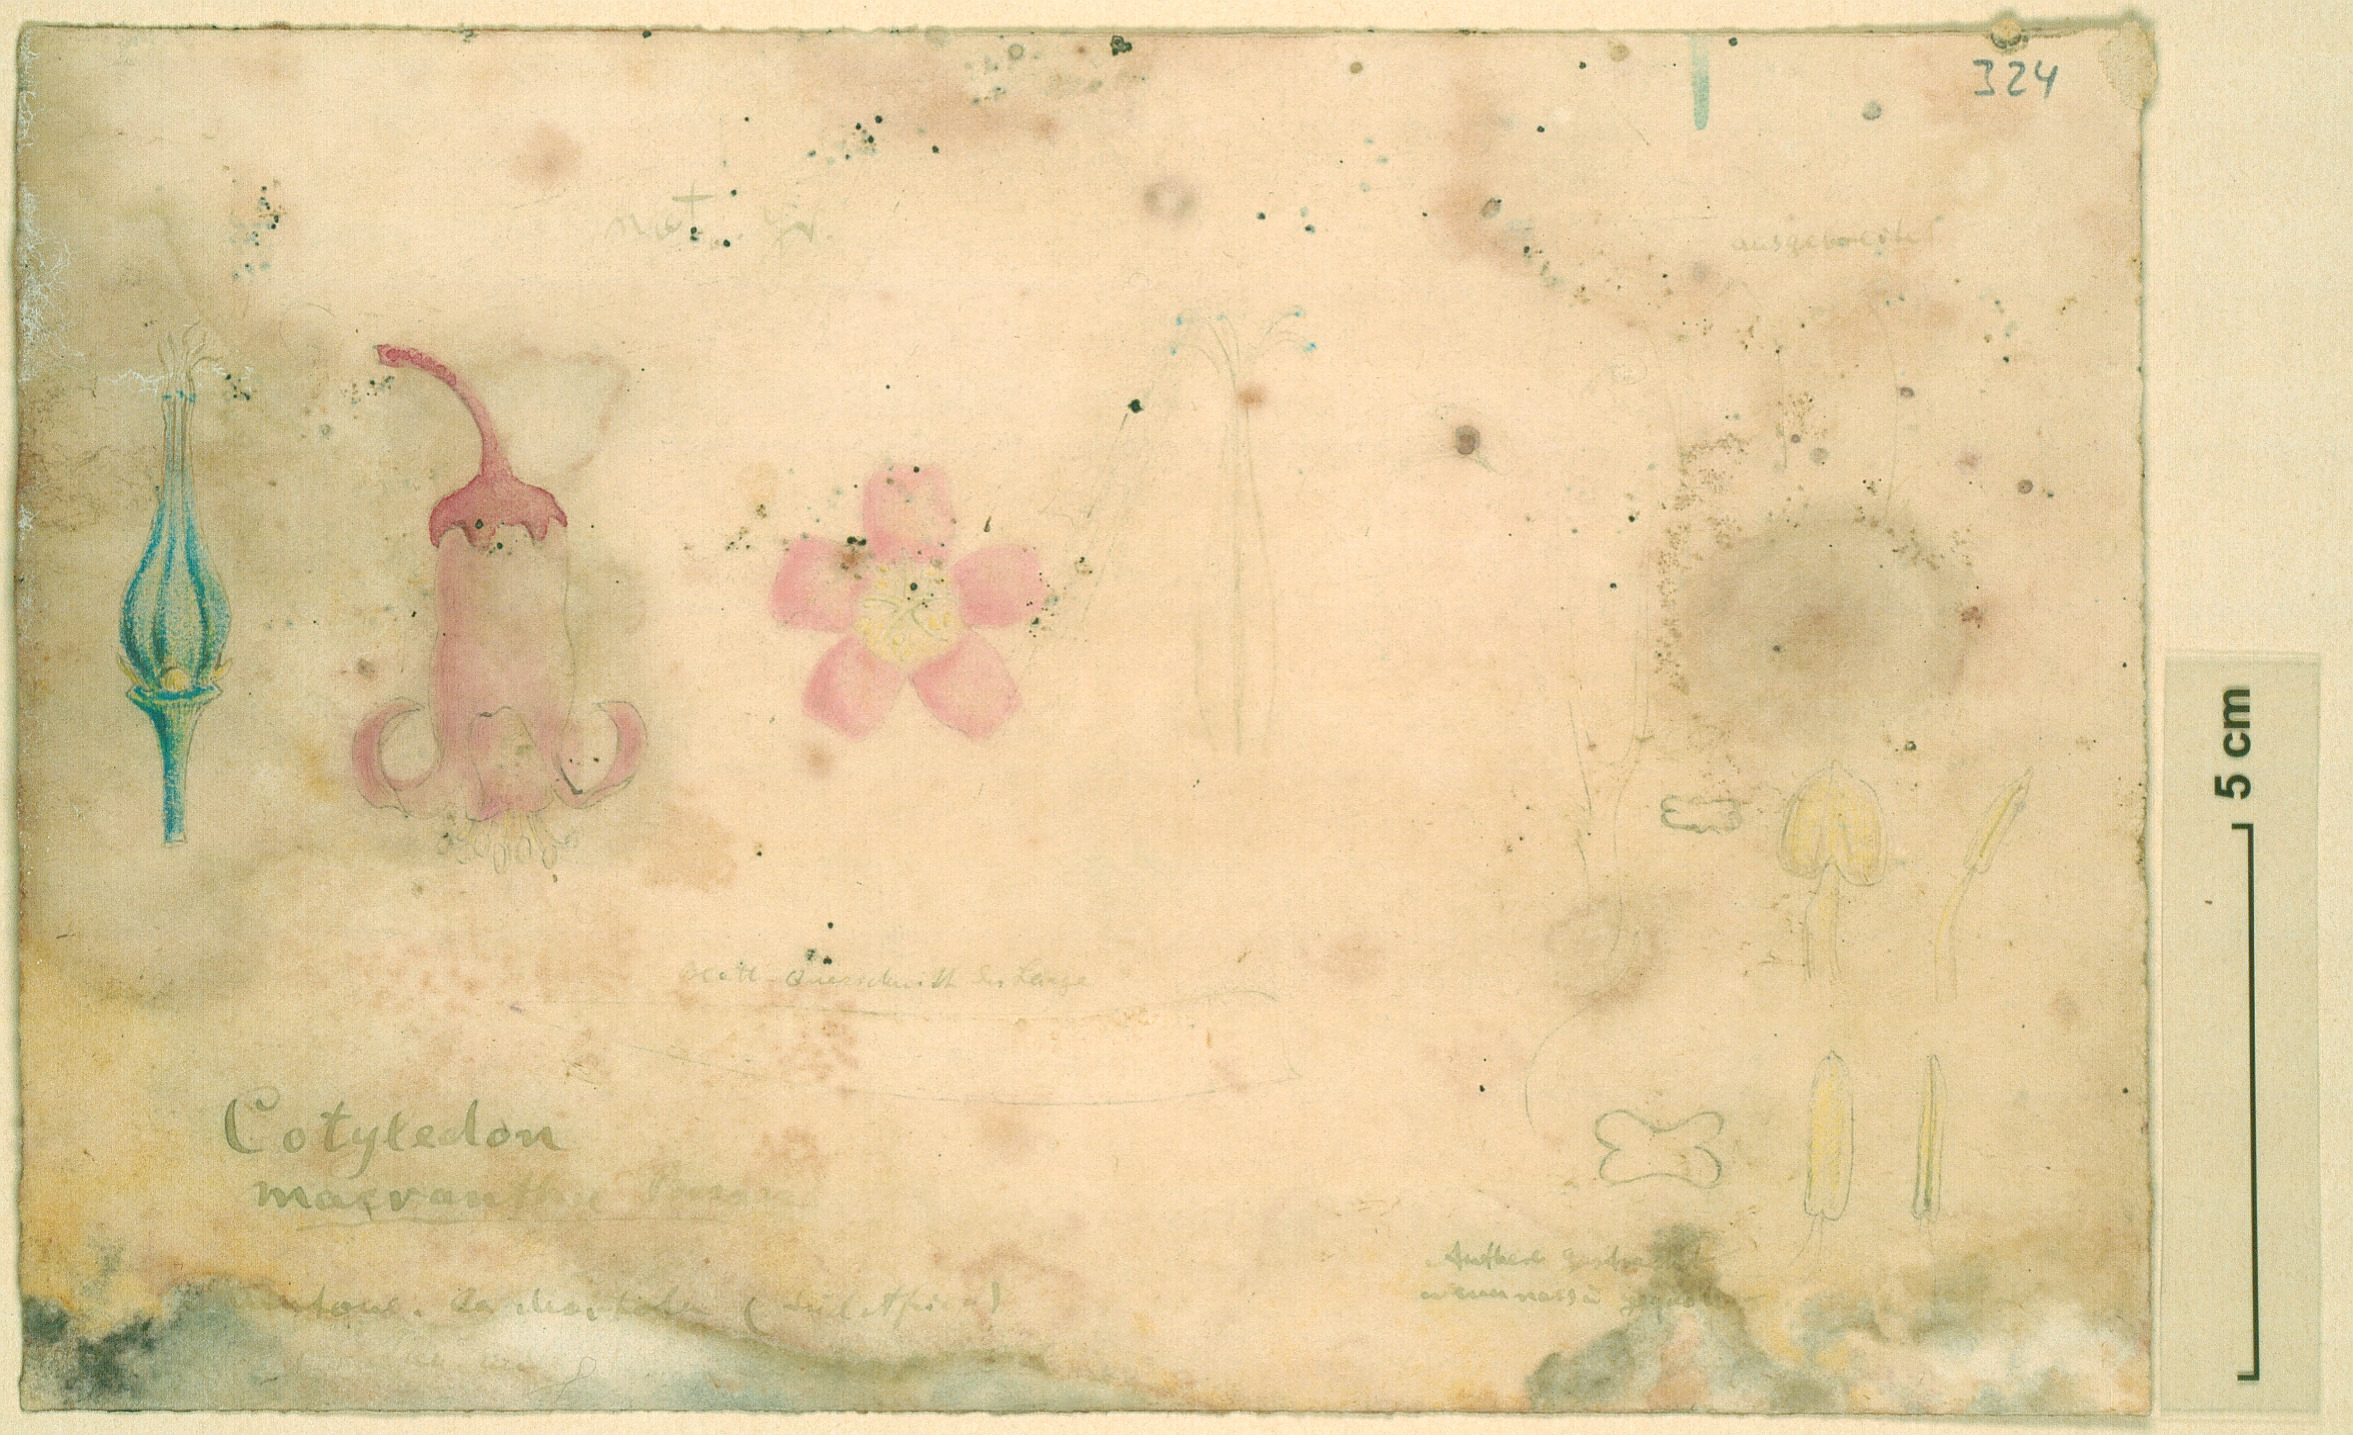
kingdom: Plantae
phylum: Tracheophyta
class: Magnoliopsida
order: Saxifragales
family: Crassulaceae
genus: Cotyledon
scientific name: Cotyledon orbiculata
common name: Pig's ear
